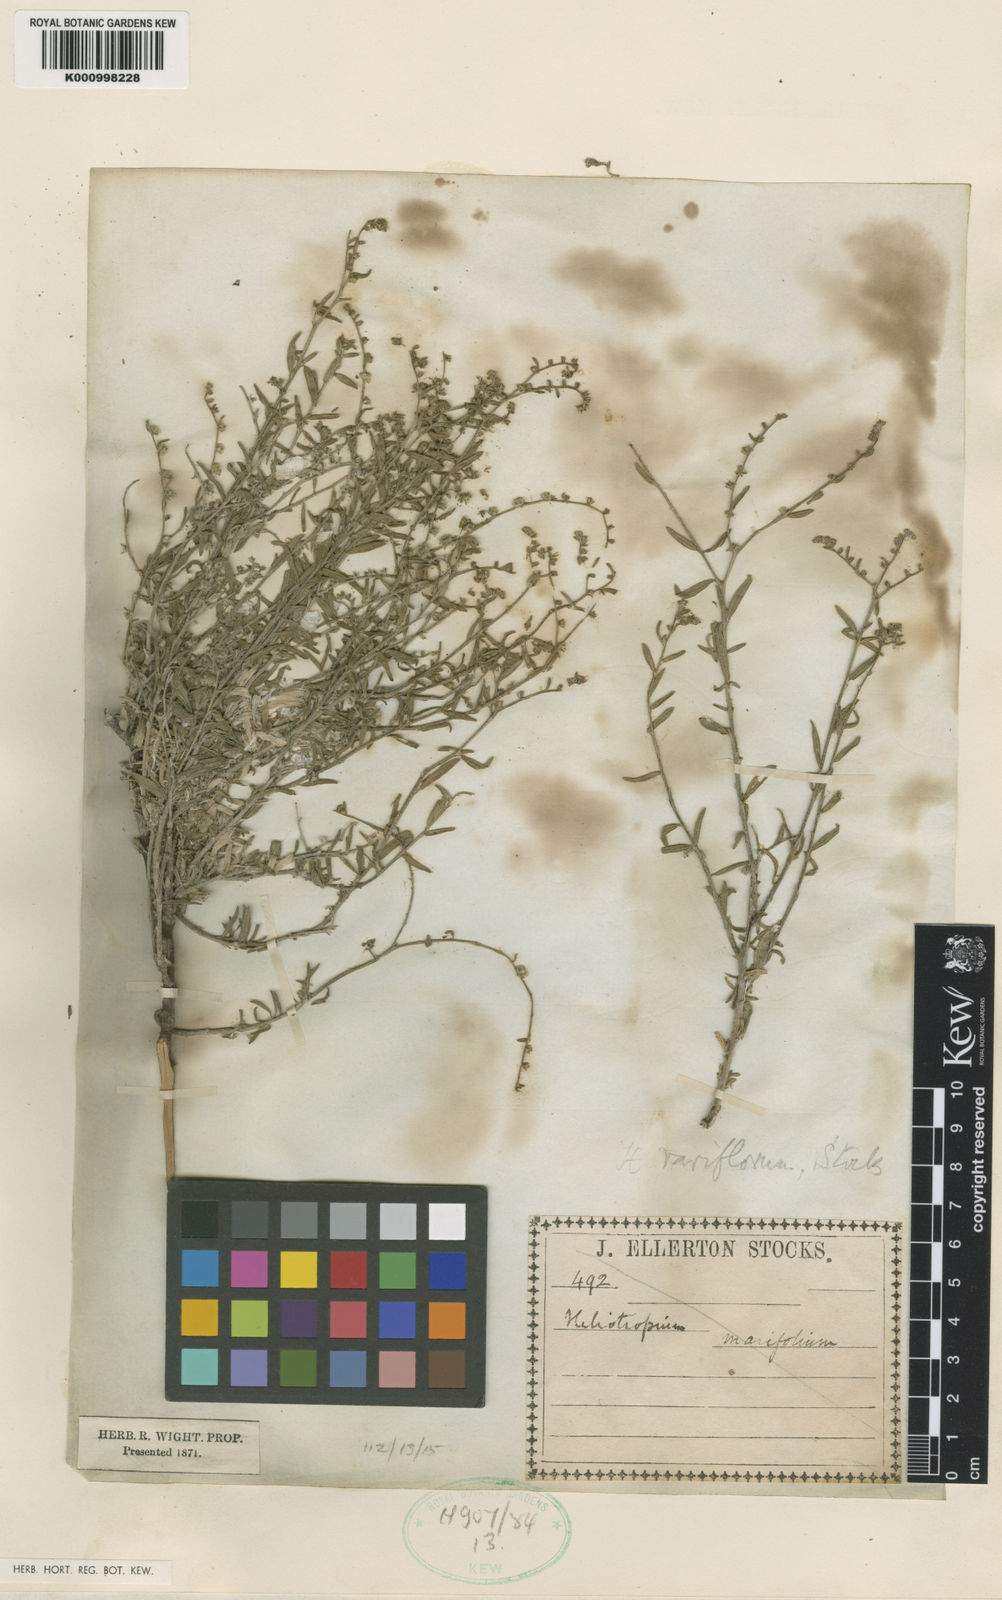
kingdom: Plantae
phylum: Tracheophyta
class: Magnoliopsida
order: Boraginales
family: Heliotropiaceae
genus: Euploca
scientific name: Euploca rariflora
